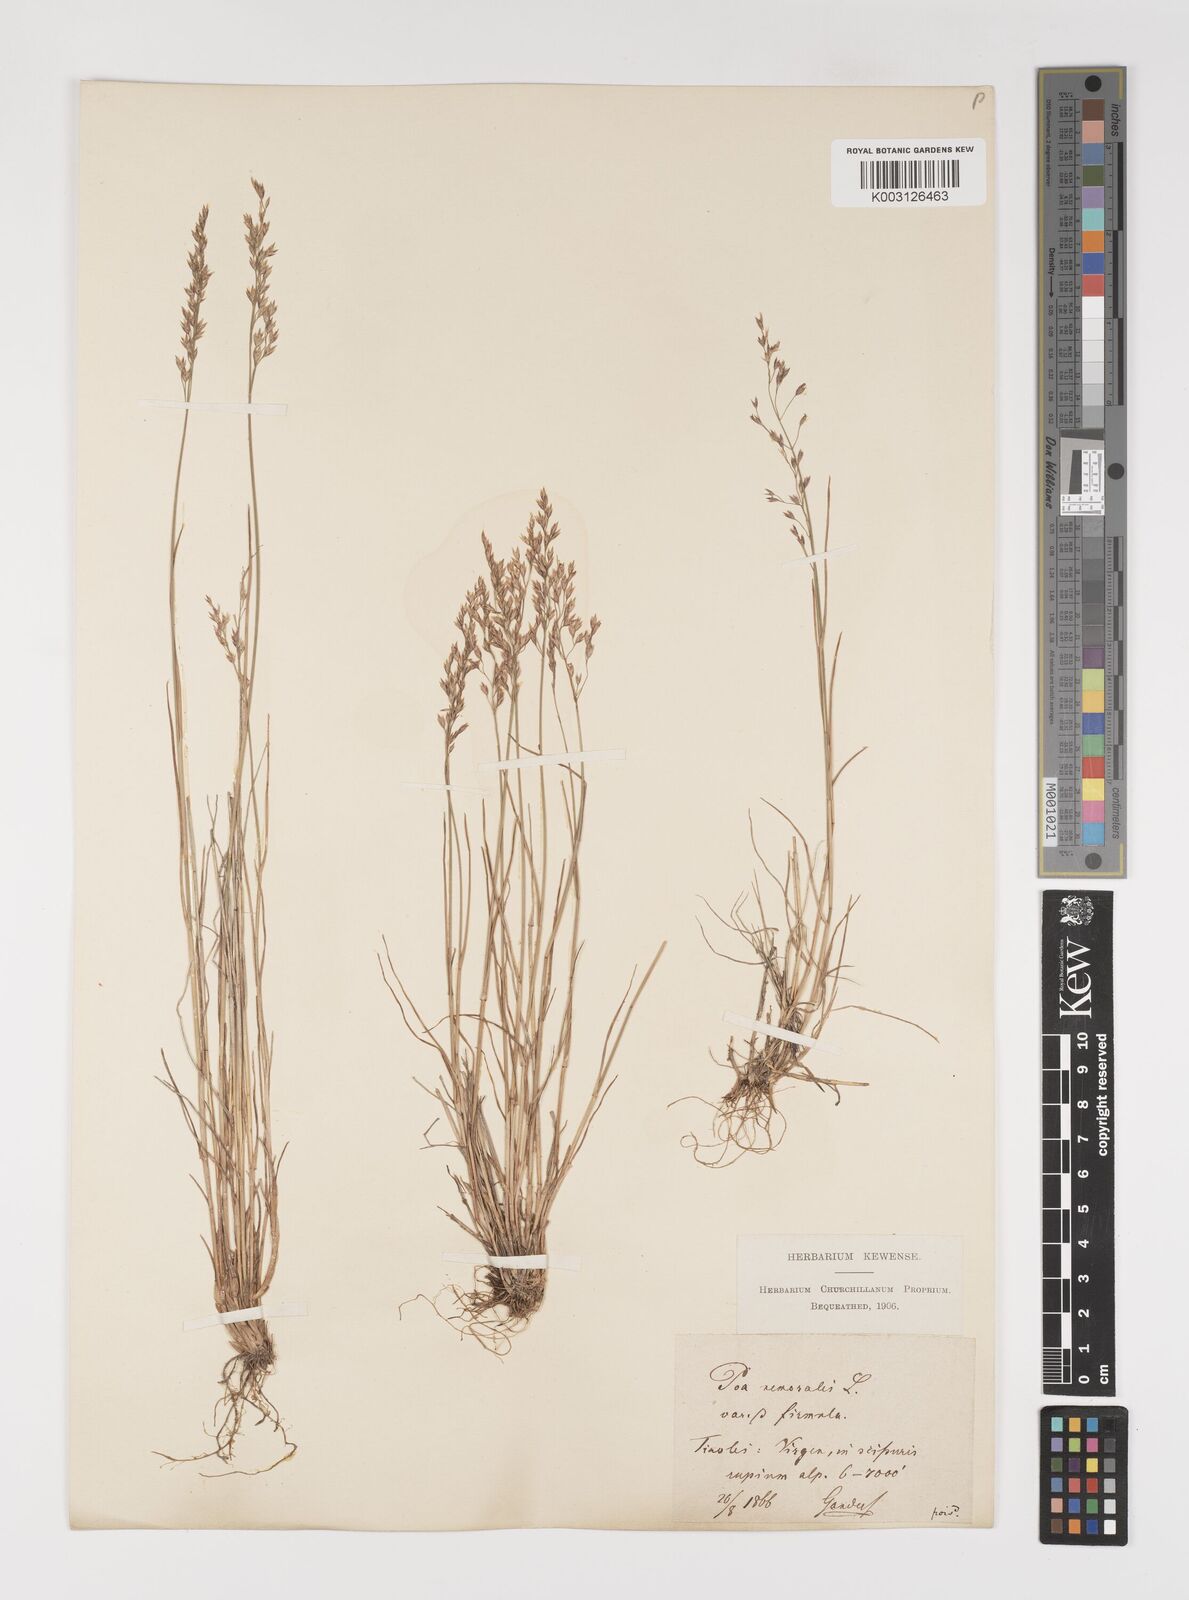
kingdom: Plantae
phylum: Tracheophyta
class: Liliopsida
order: Poales
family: Poaceae
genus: Poa
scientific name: Poa nemoralis
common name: Wood bluegrass
